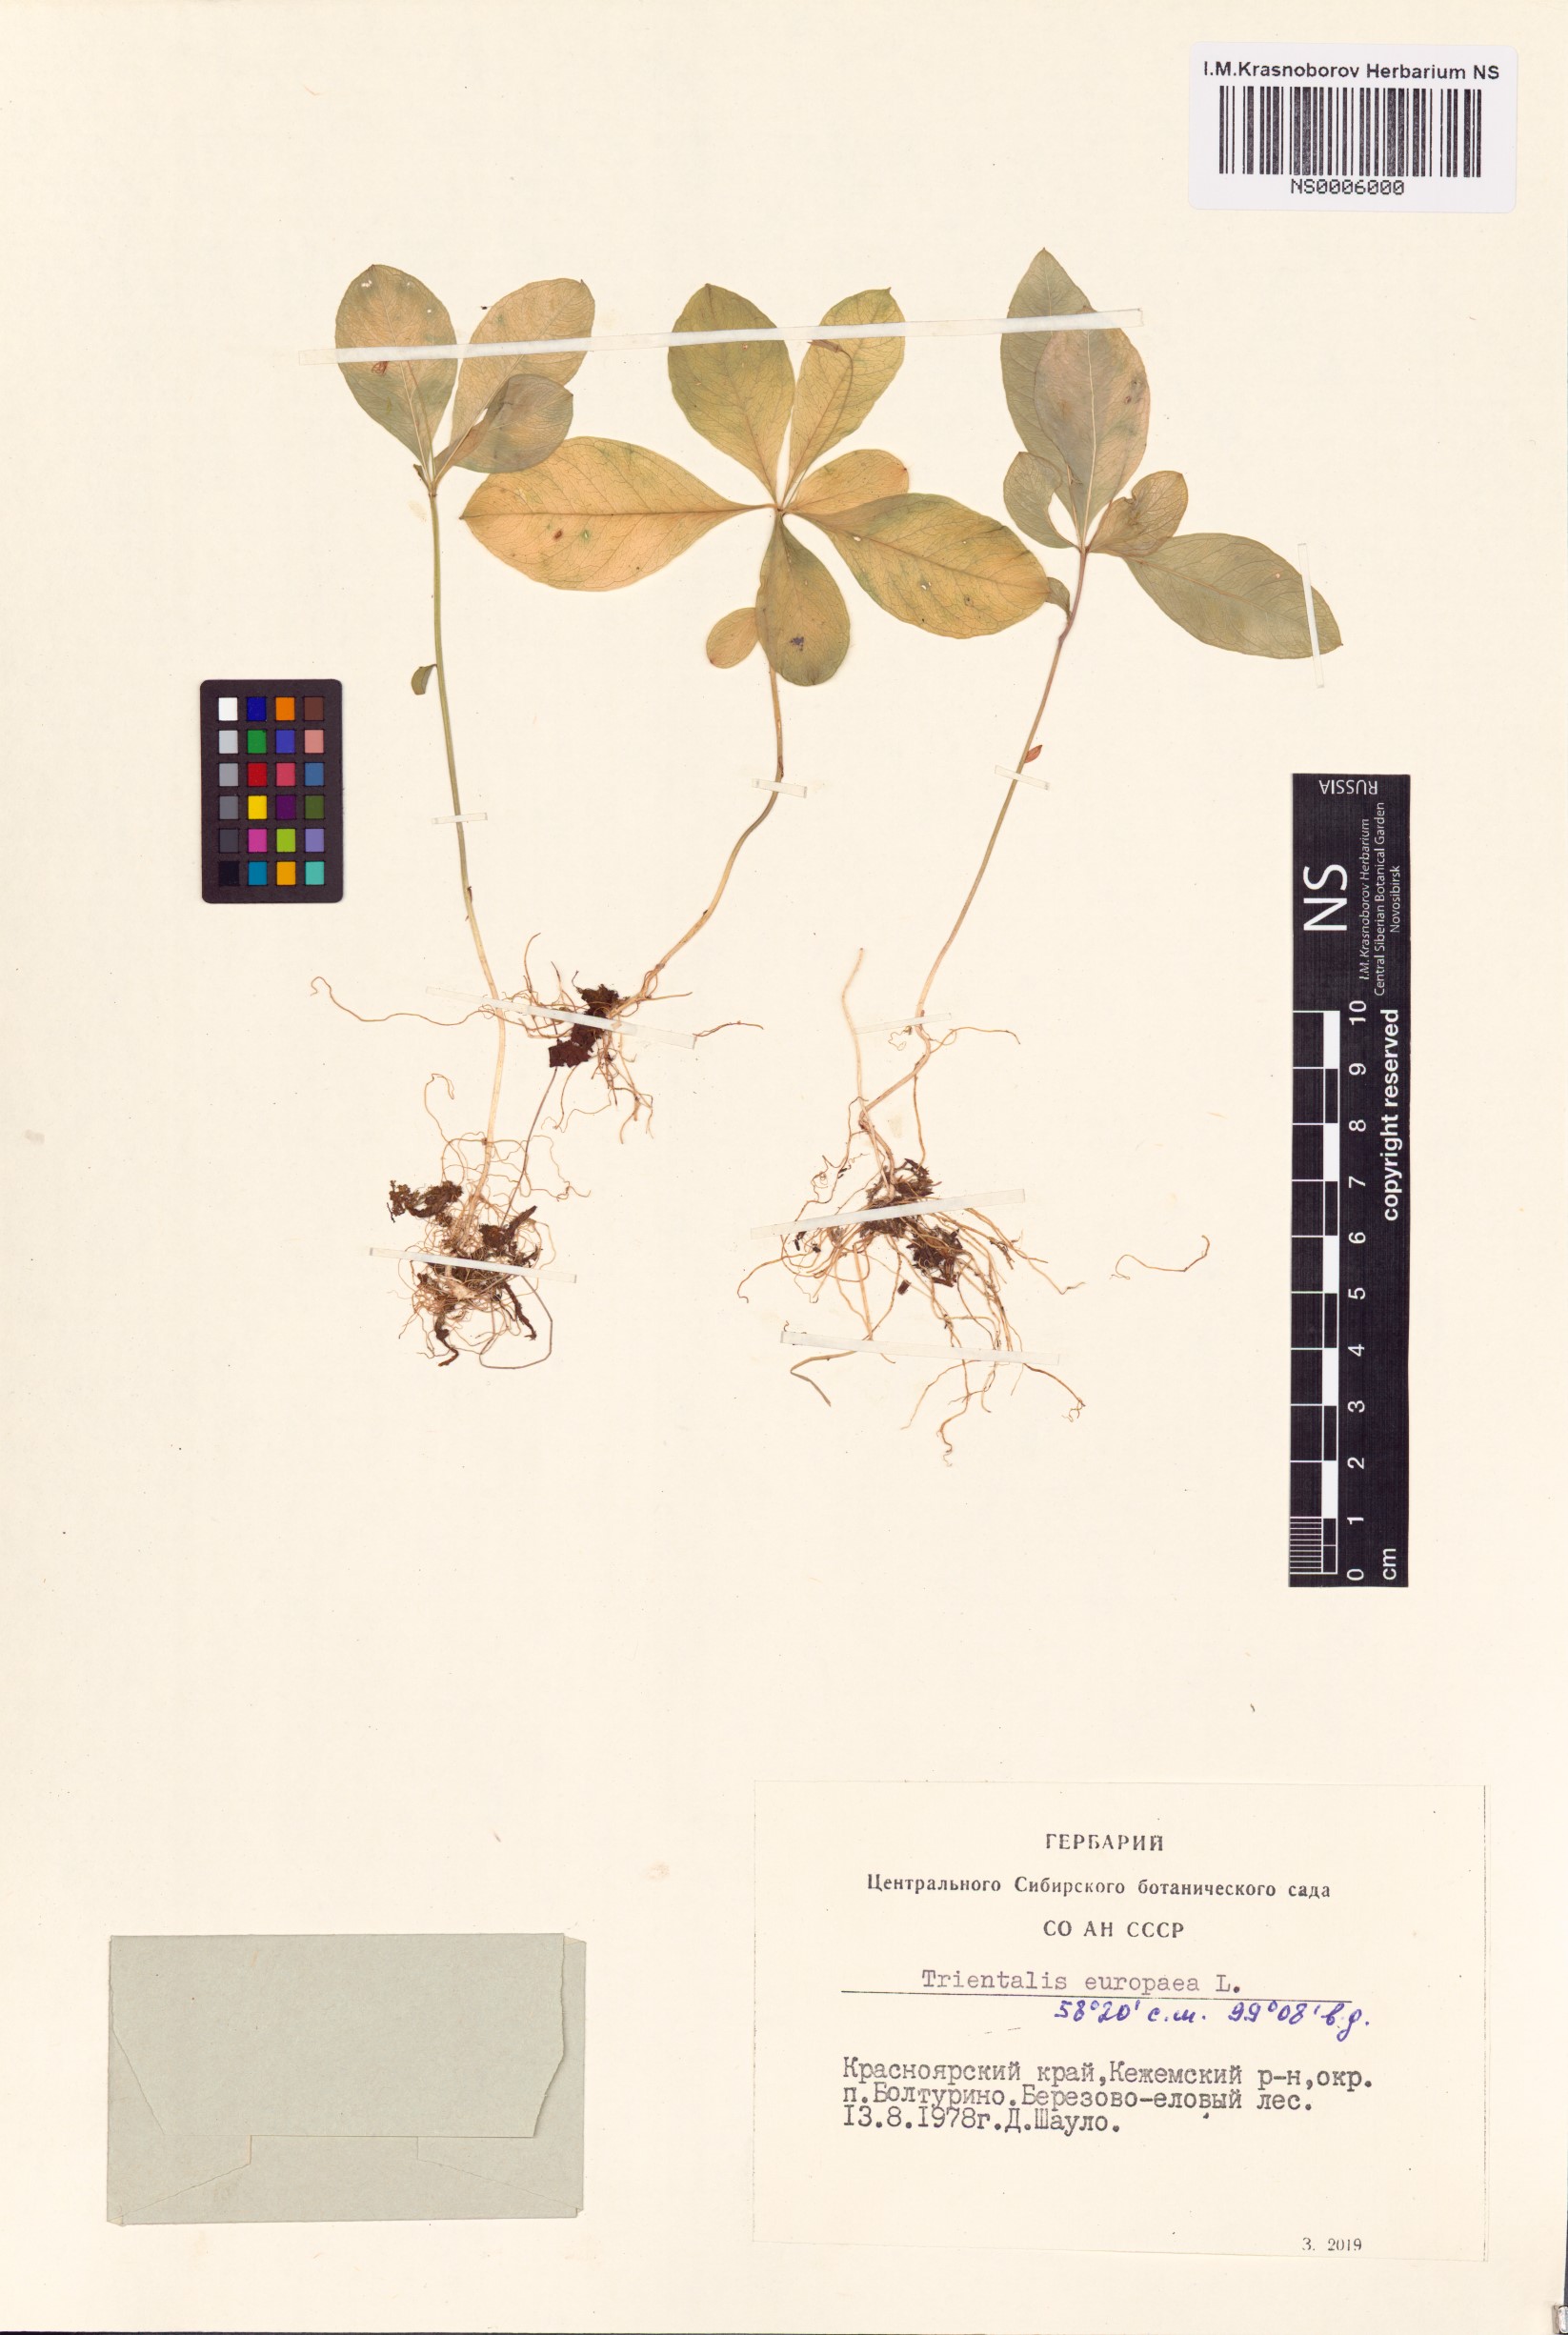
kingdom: Plantae
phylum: Tracheophyta
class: Magnoliopsida
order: Ericales
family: Primulaceae
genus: Lysimachia
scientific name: Lysimachia europaea
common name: Arctic starflower
